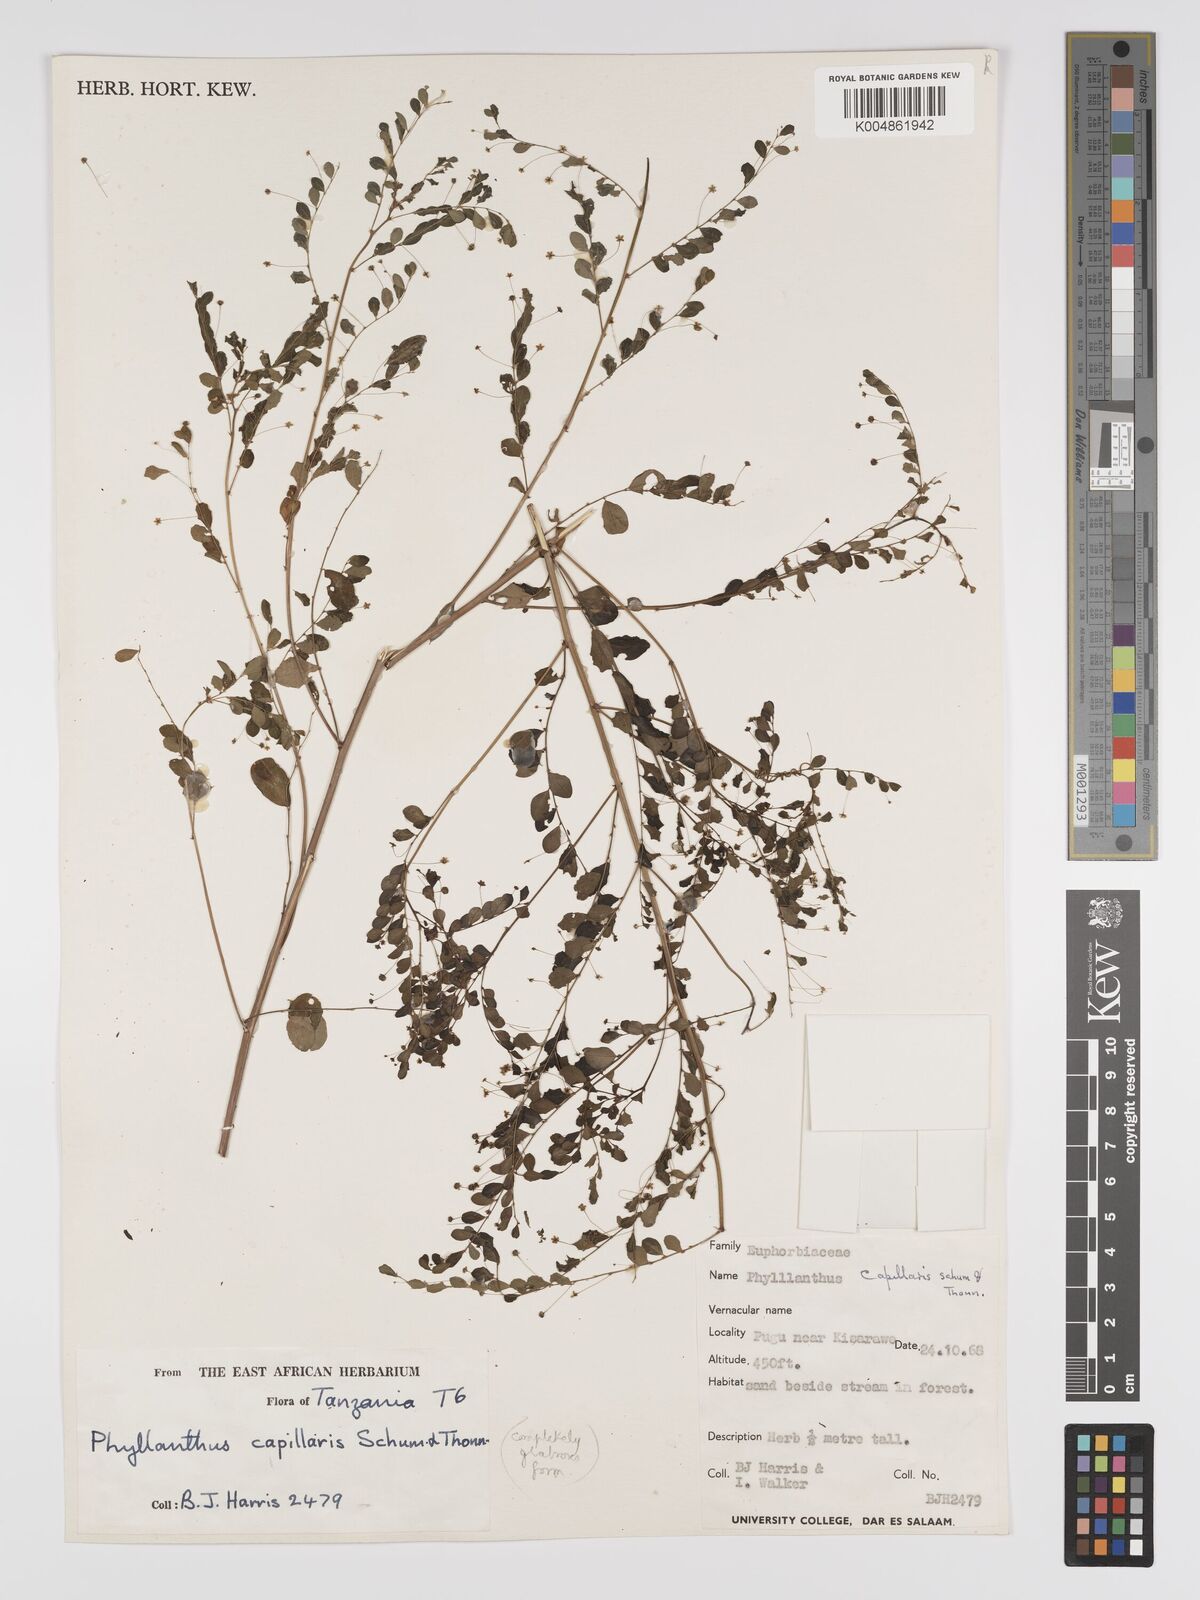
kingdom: Plantae
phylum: Tracheophyta
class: Magnoliopsida
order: Malpighiales
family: Phyllanthaceae
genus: Phyllanthus
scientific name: Phyllanthus nummulariifolius
